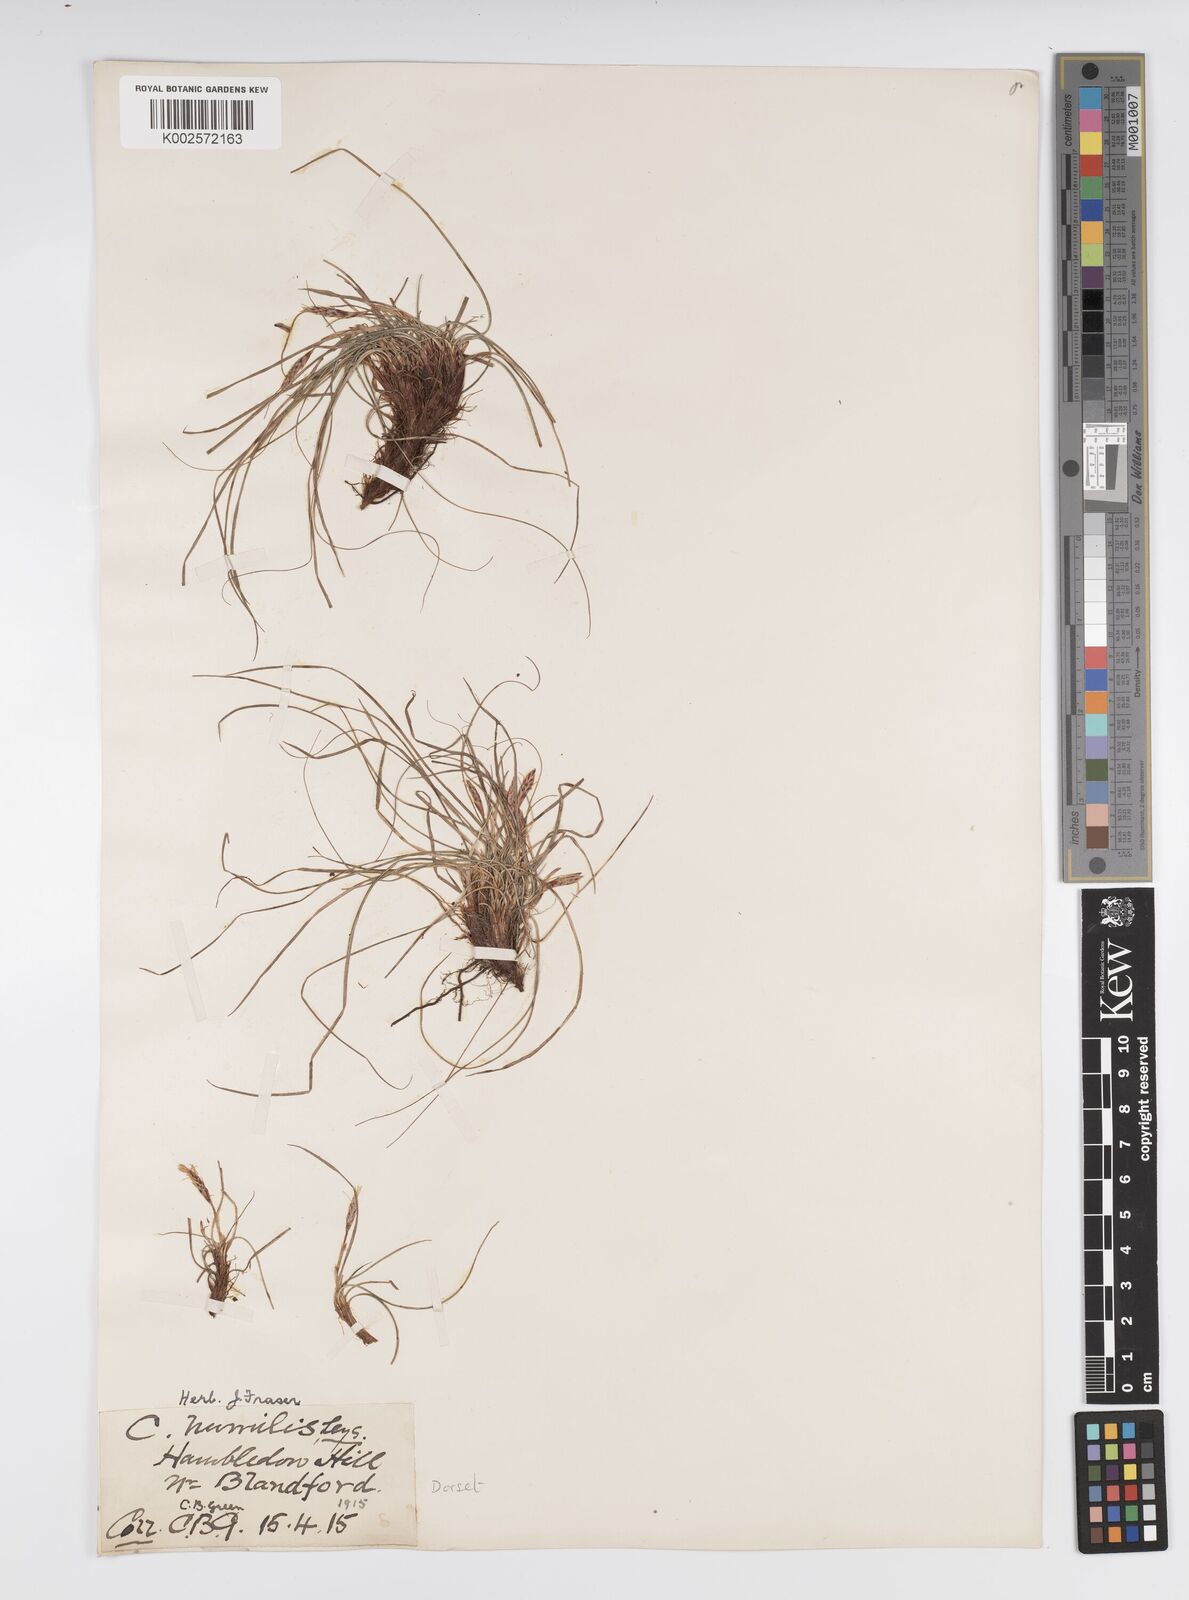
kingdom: Plantae
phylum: Tracheophyta
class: Liliopsida
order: Poales
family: Cyperaceae
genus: Carex
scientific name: Carex cespitosa
